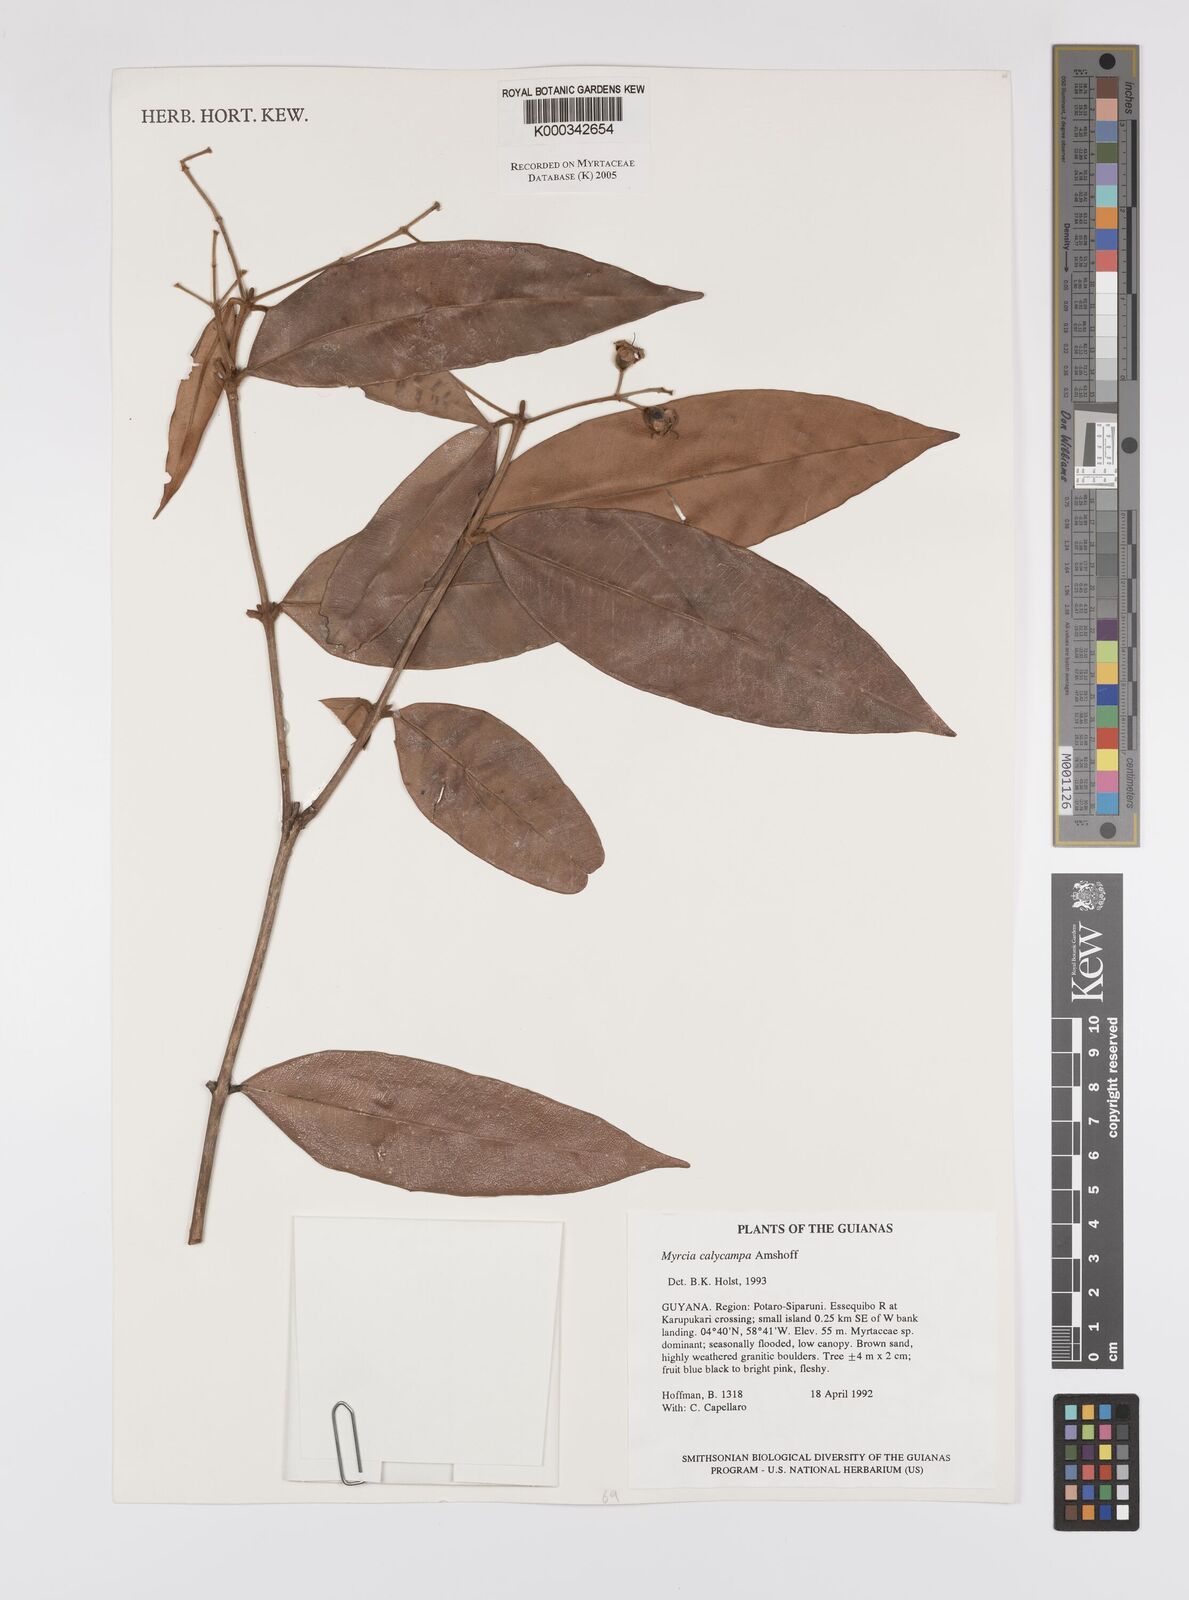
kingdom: Plantae
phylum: Tracheophyta
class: Magnoliopsida
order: Myrtales
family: Myrtaceae
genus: Myrcia
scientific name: Myrcia calycampa
